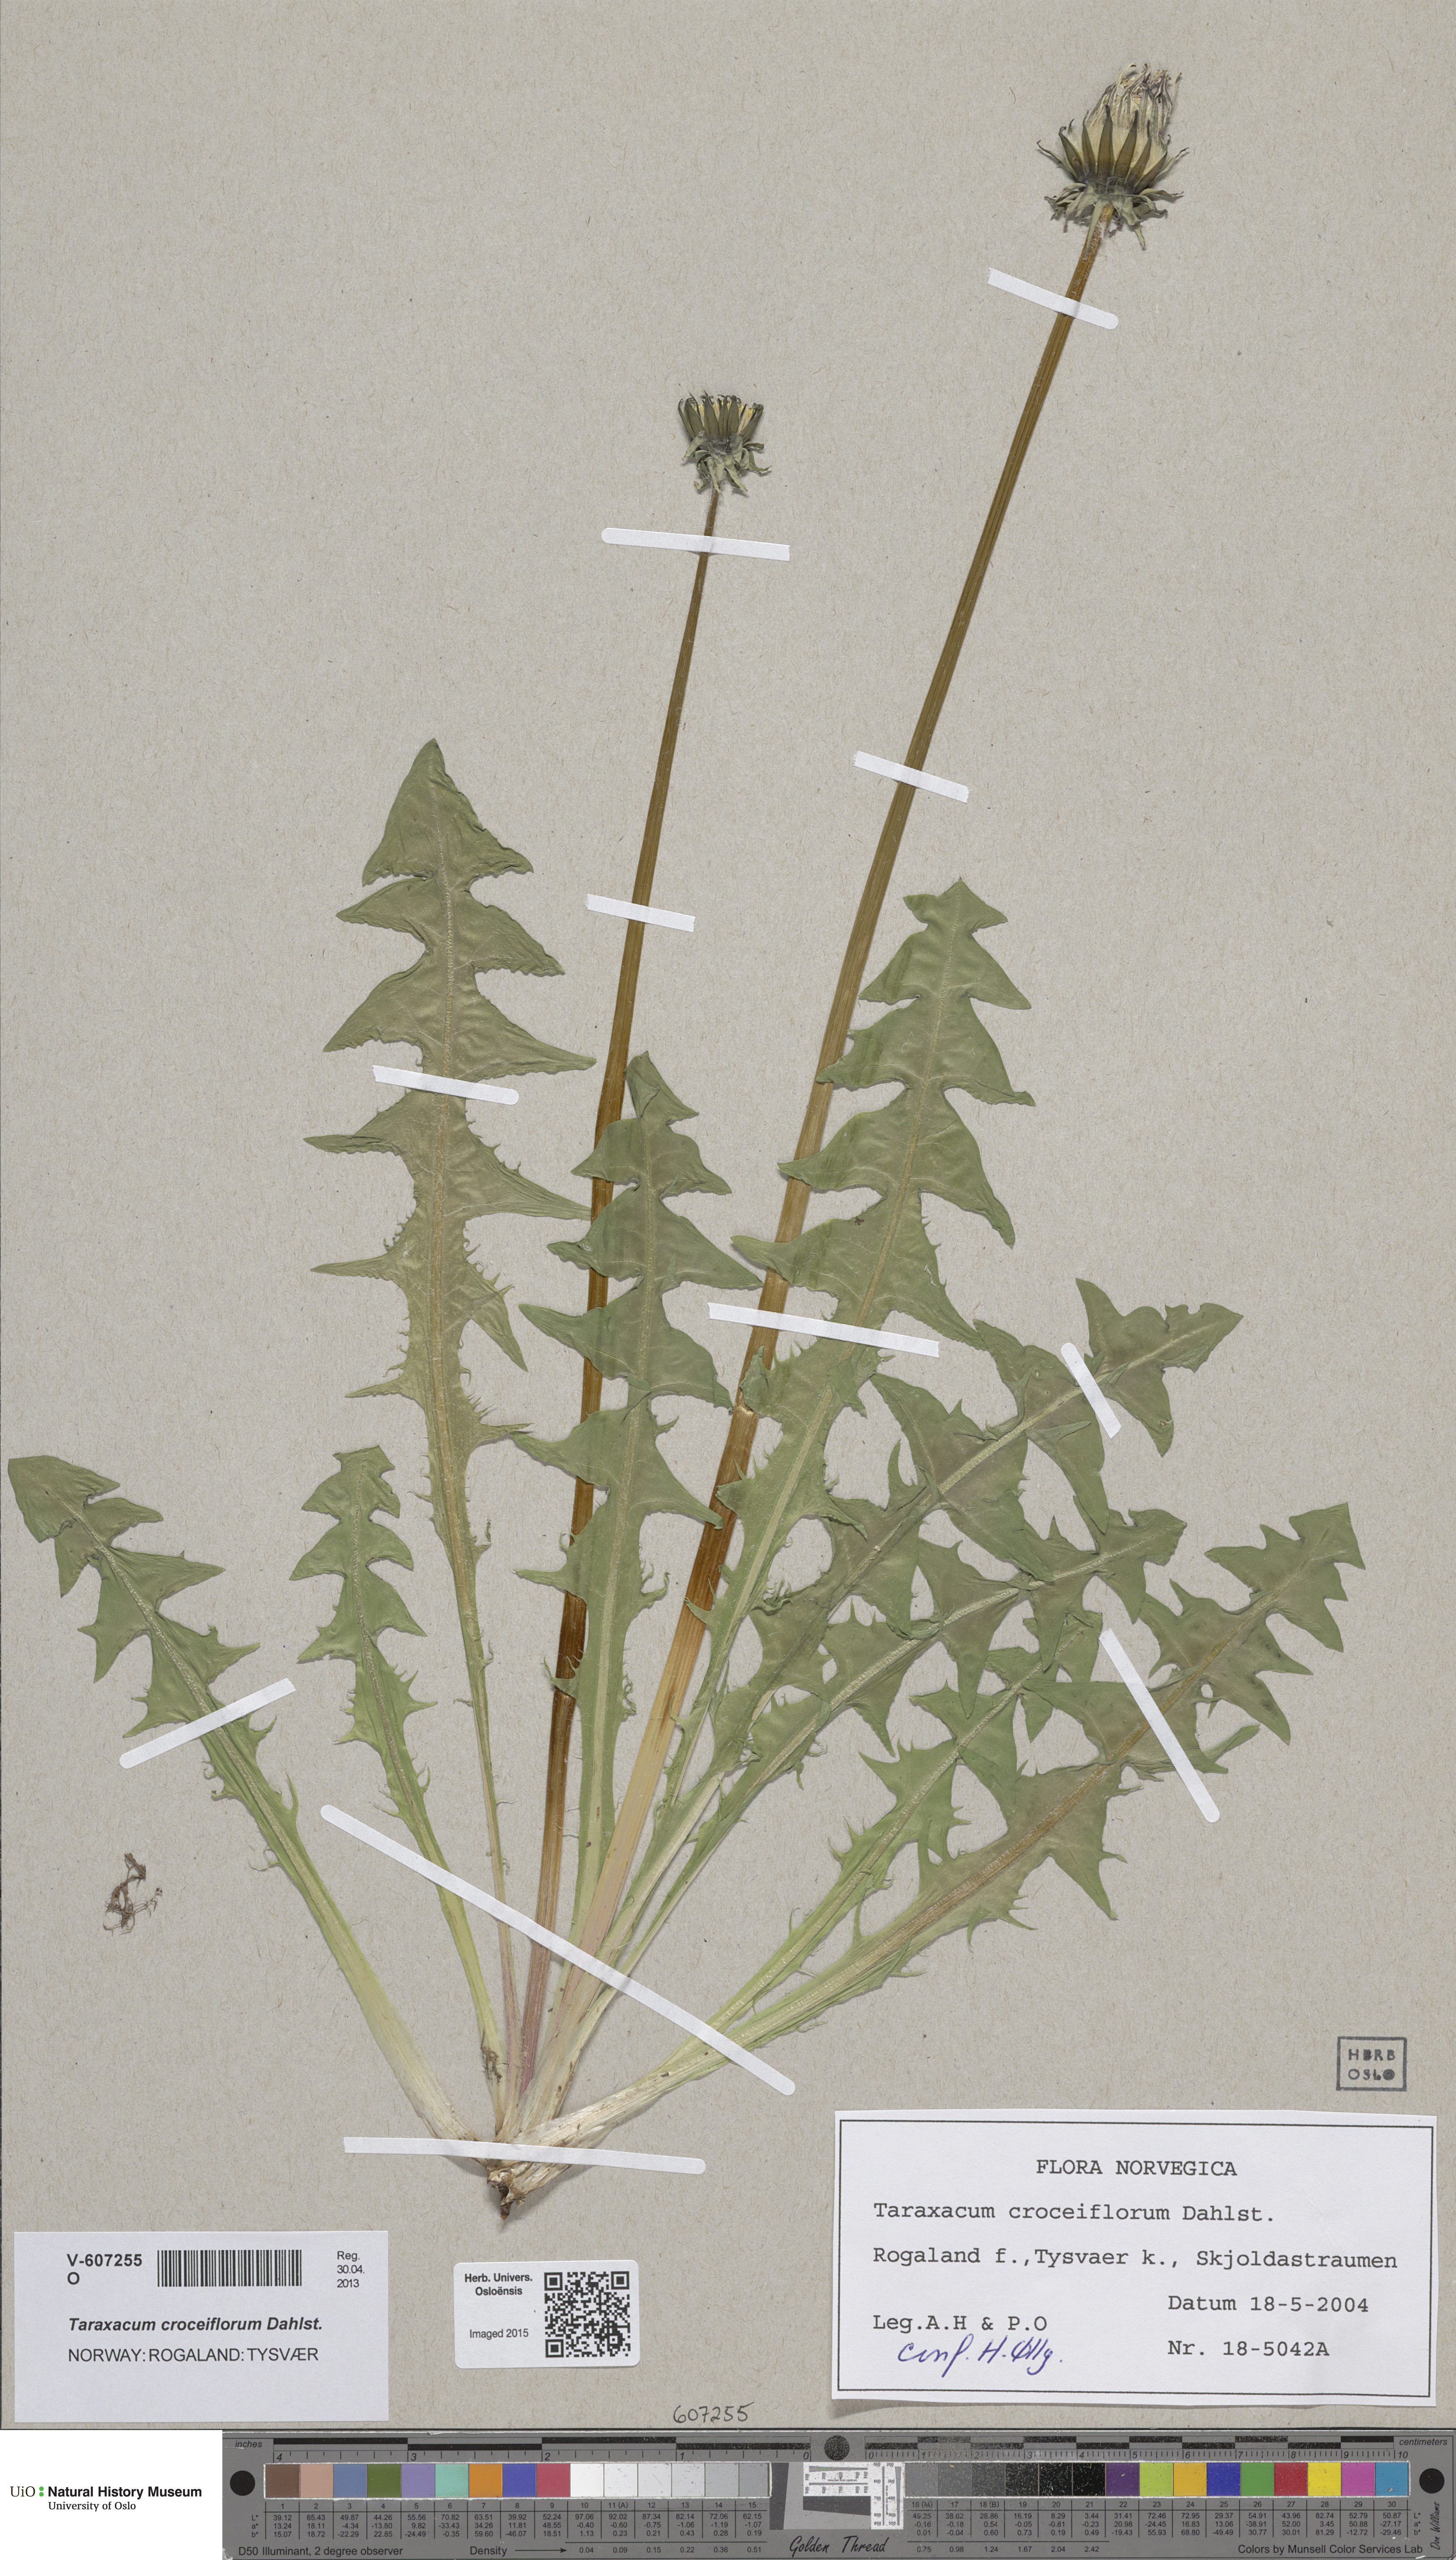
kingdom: Plantae
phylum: Tracheophyta
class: Magnoliopsida
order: Asterales
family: Asteraceae
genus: Taraxacum
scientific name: Taraxacum croceiflorum
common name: Orange-flowered dandelion
